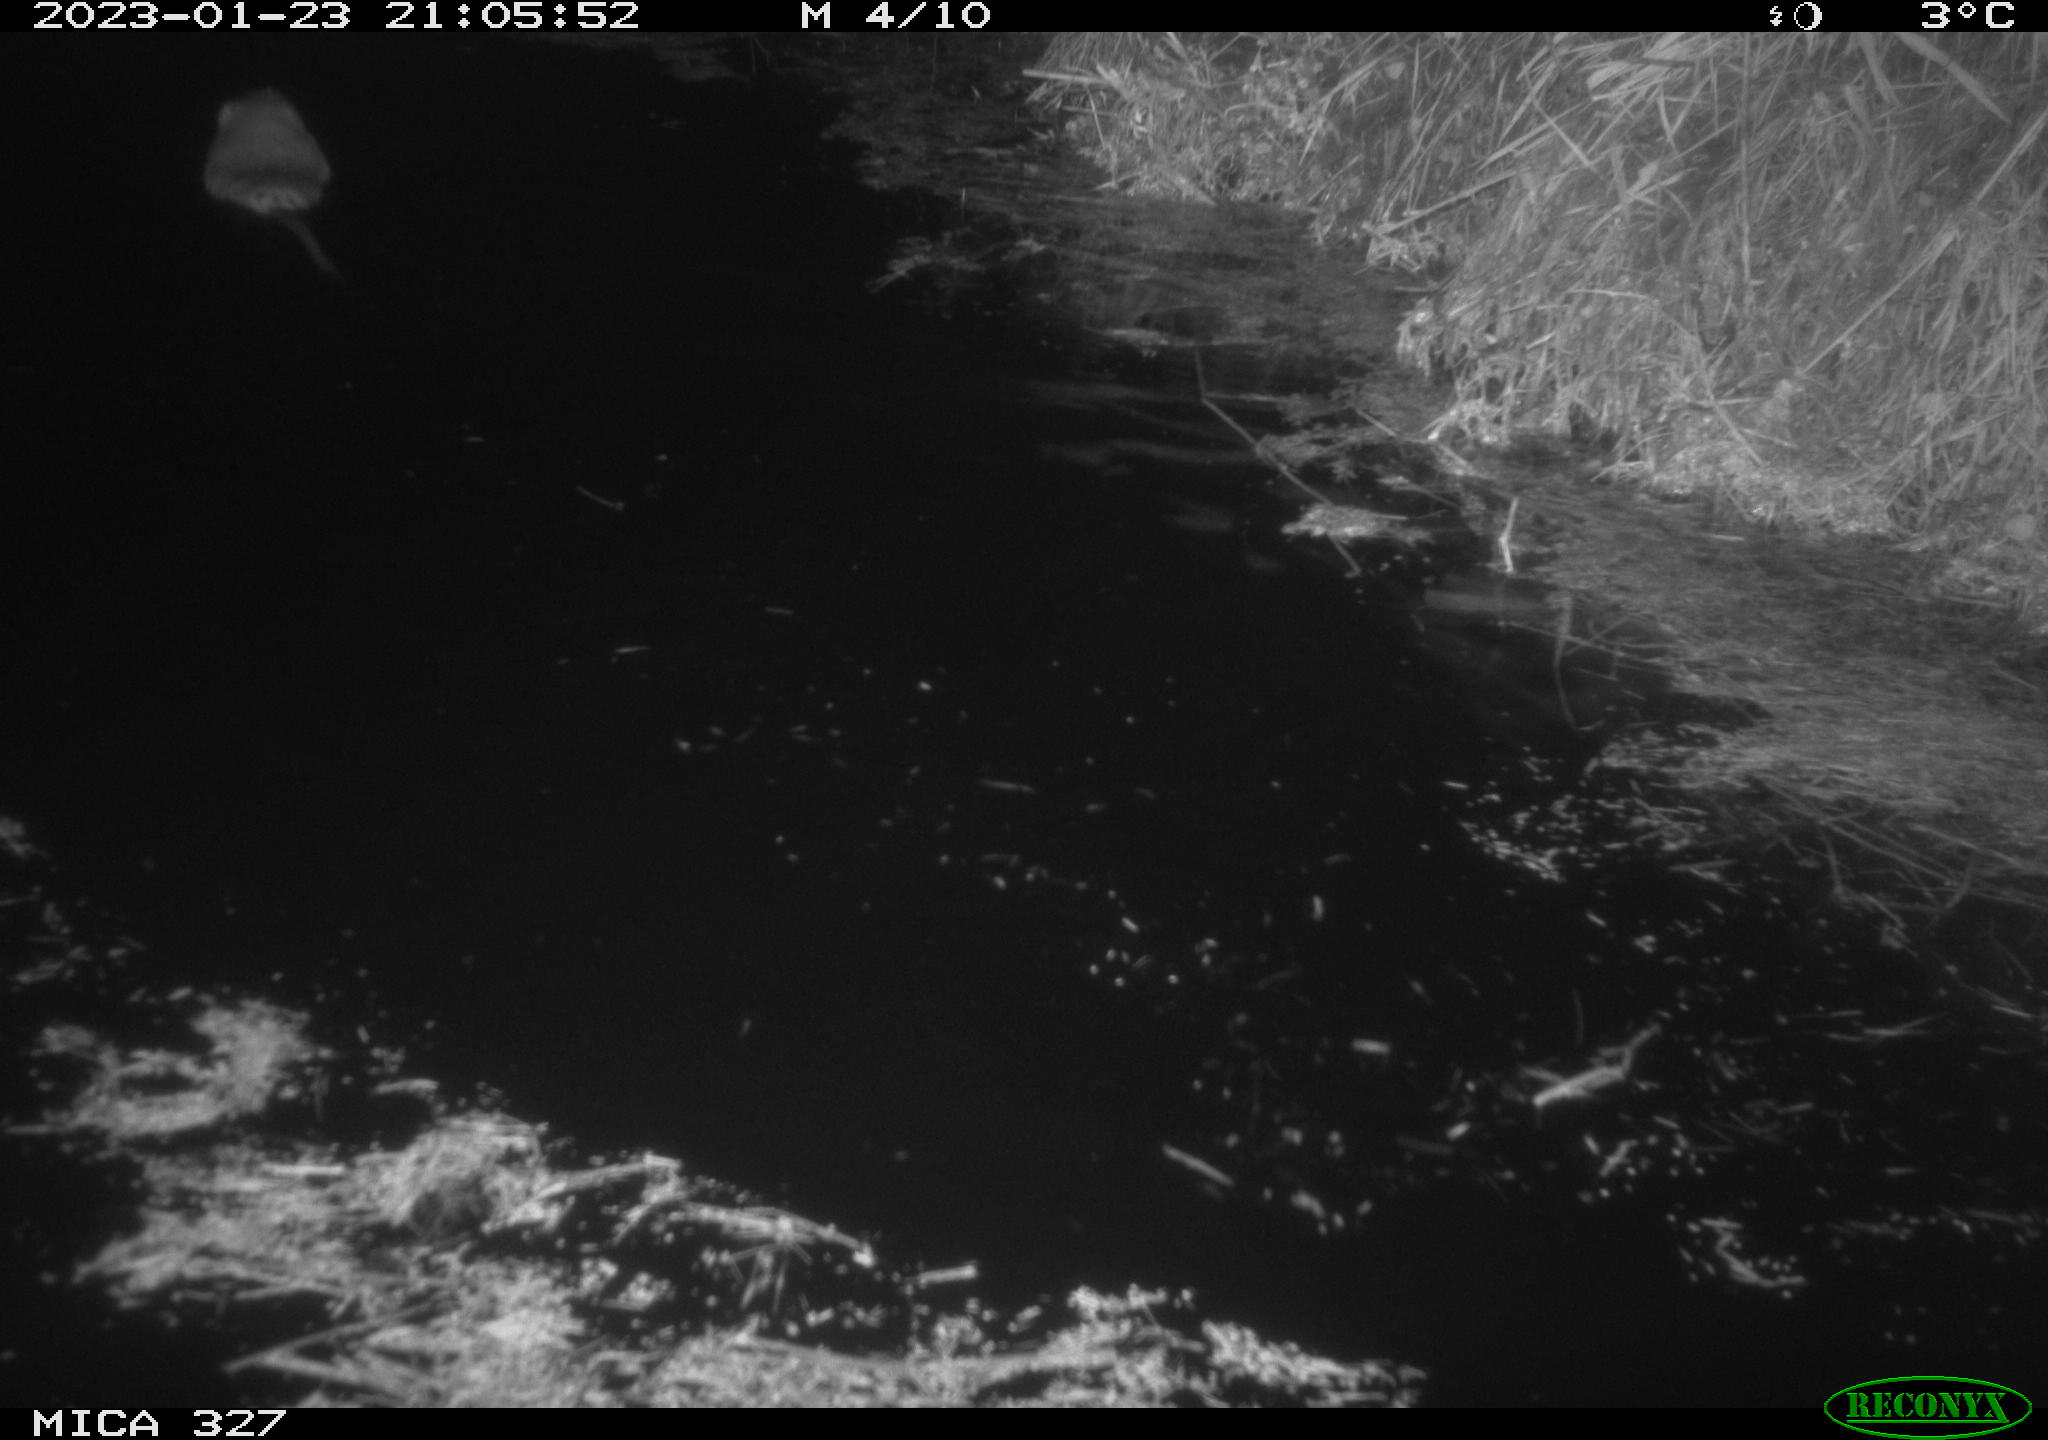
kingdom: Animalia
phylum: Chordata
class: Mammalia
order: Rodentia
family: Cricetidae
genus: Ondatra
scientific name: Ondatra zibethicus
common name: Muskrat
